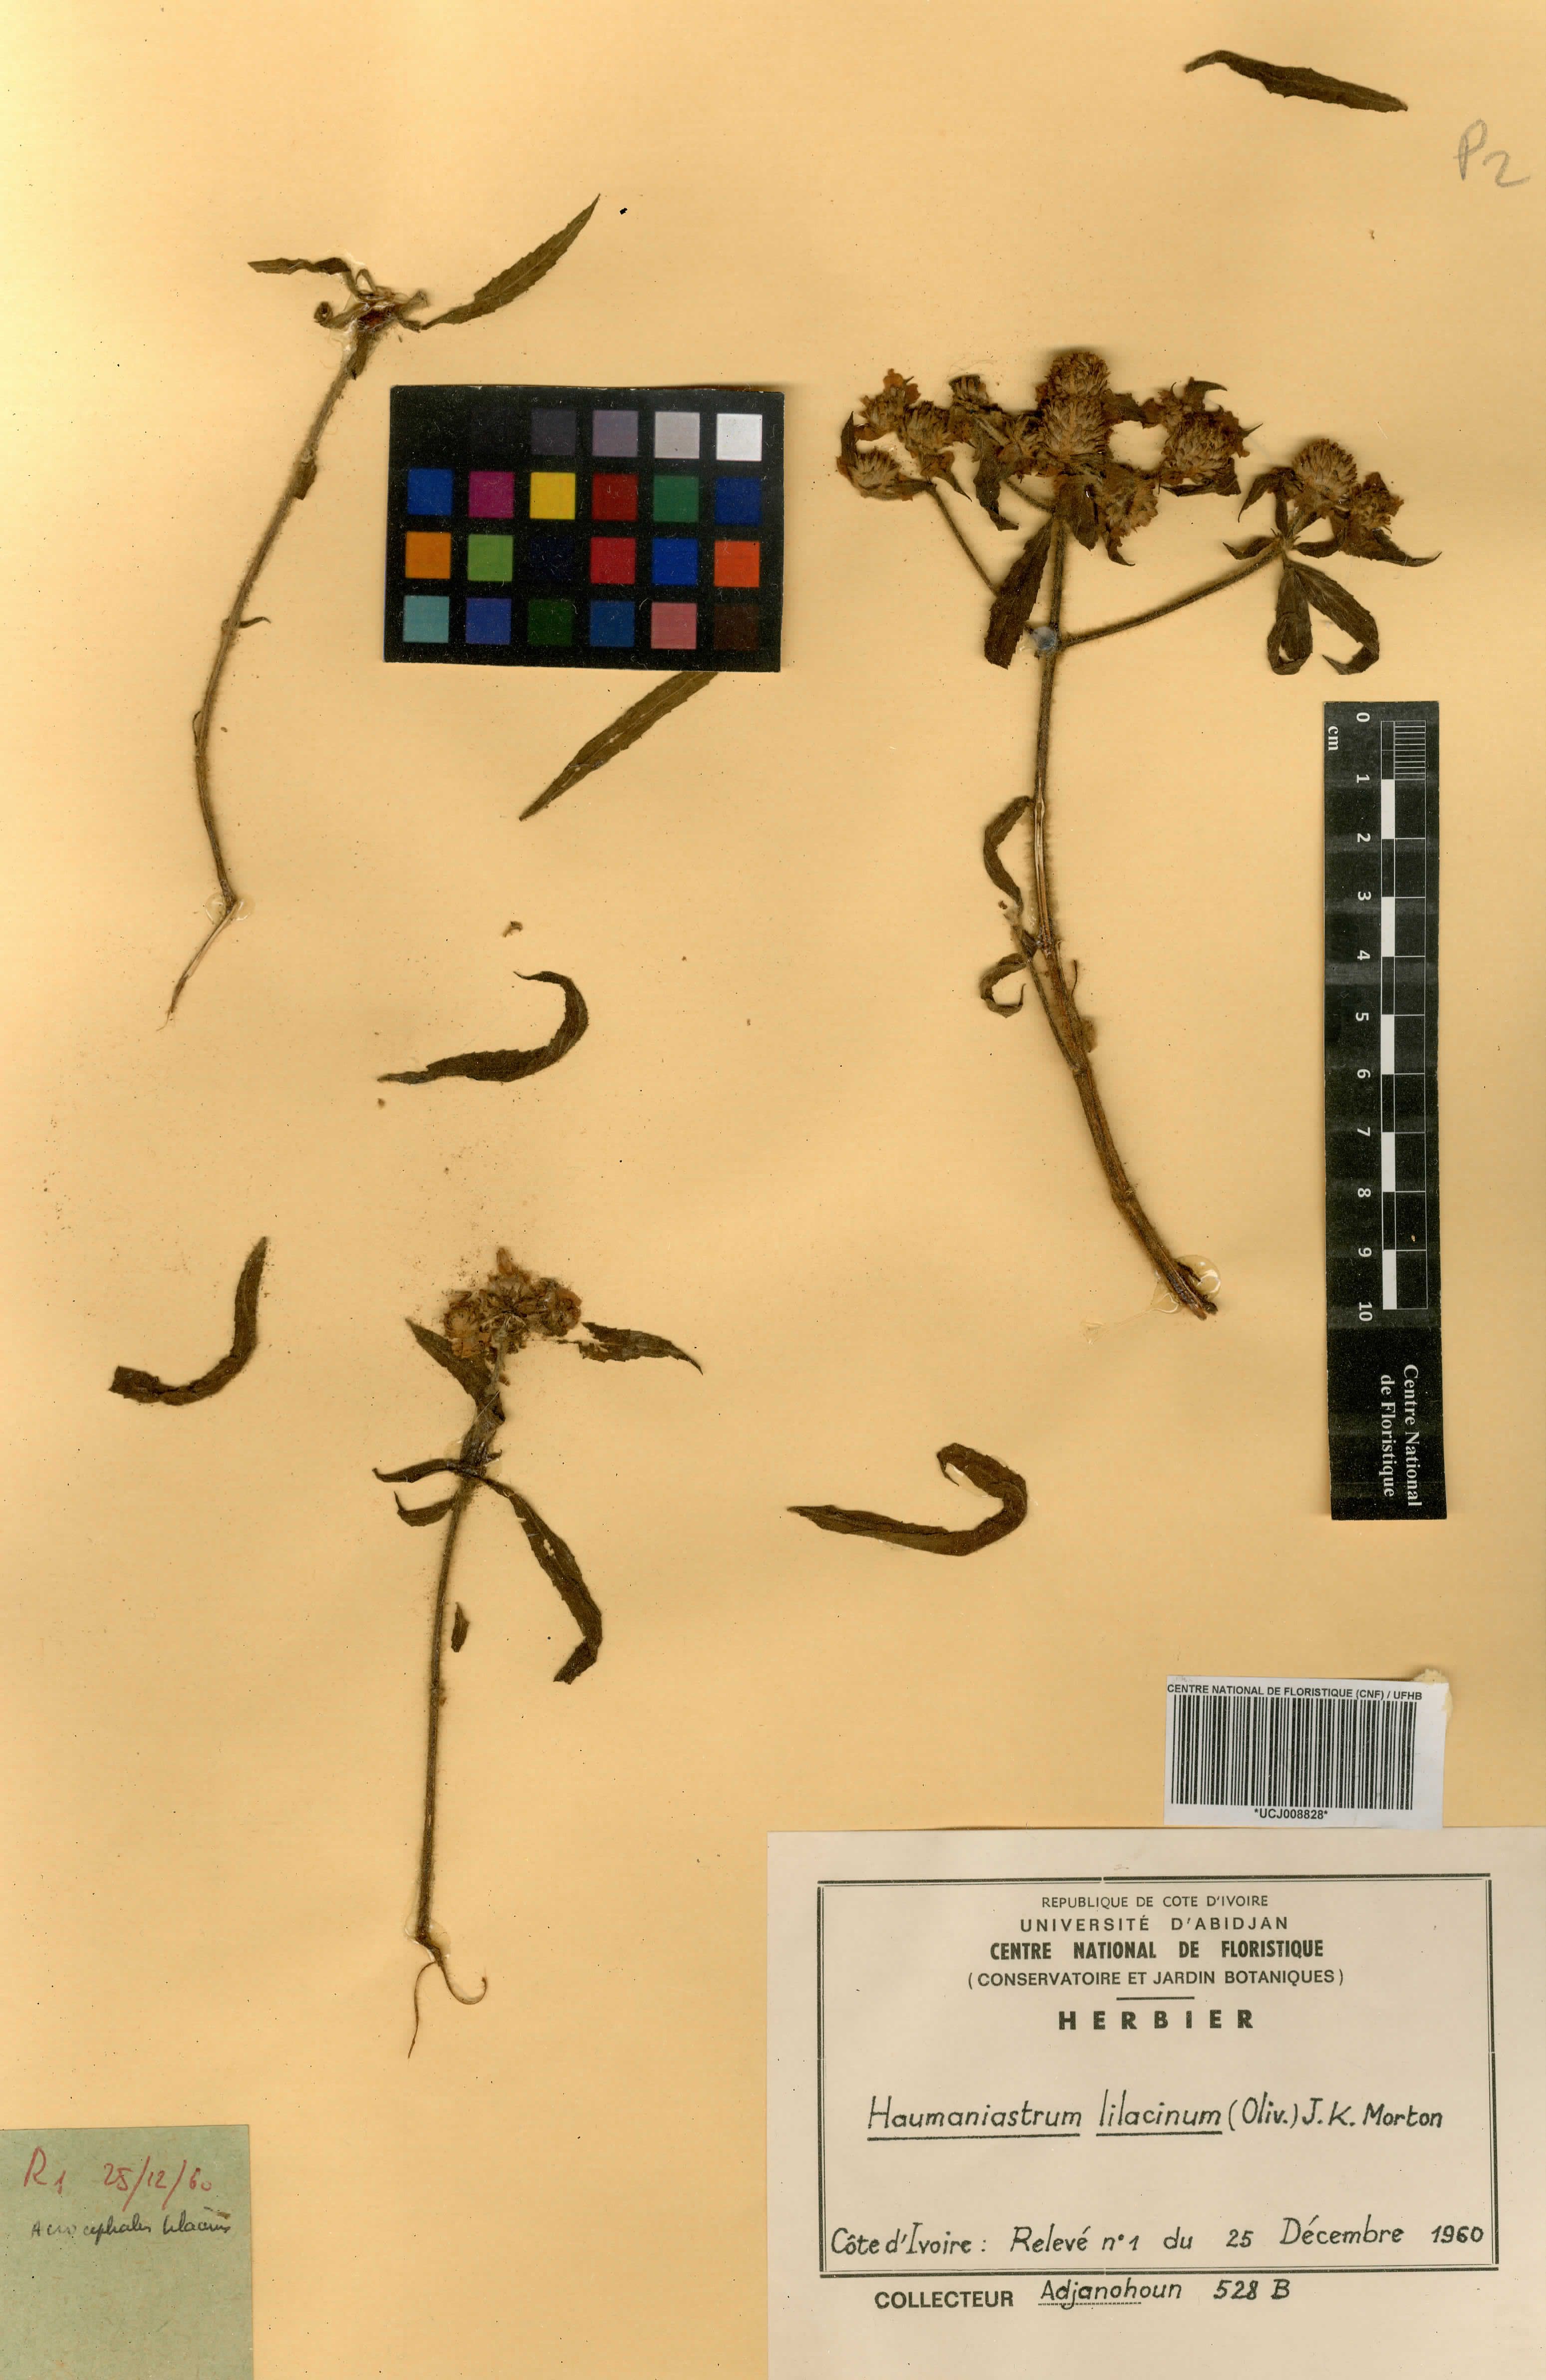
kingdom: Plantae
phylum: Tracheophyta
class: Magnoliopsida
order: Lamiales
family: Lamiaceae
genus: Haumaniastrum
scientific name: Haumaniastrum caeruleum
